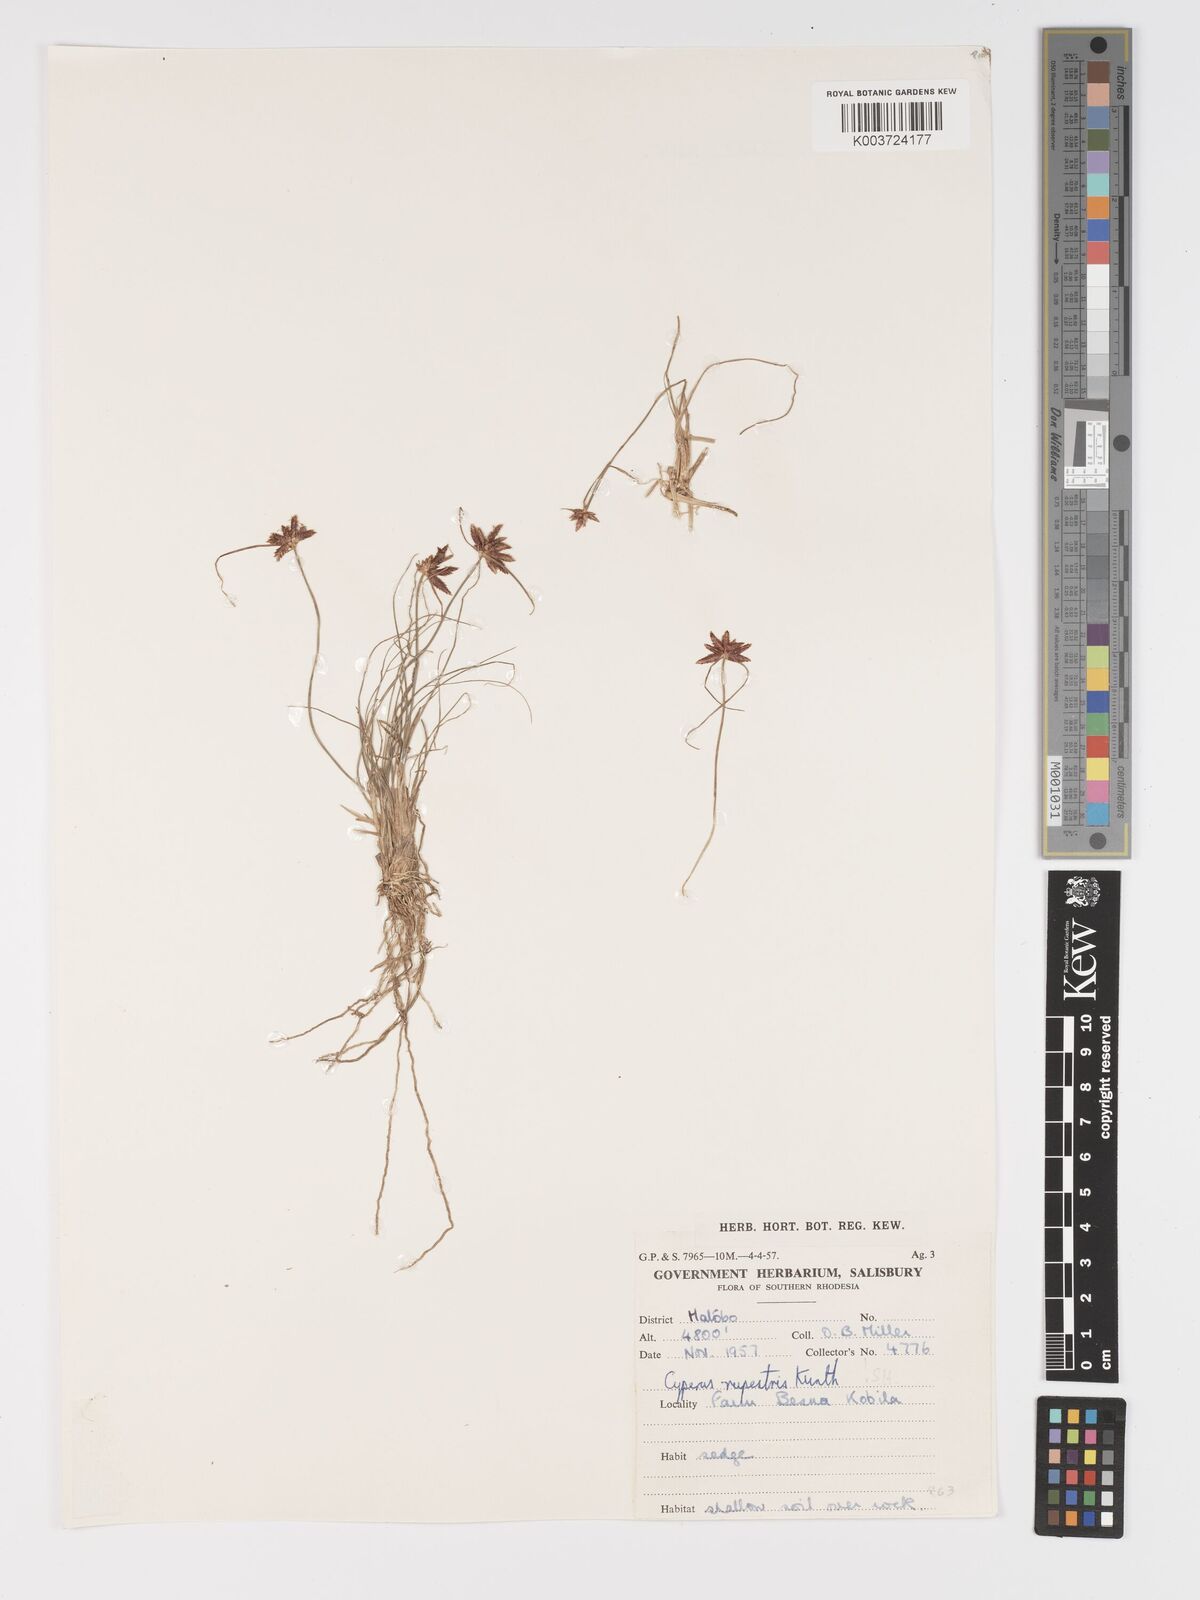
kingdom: Plantae
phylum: Tracheophyta
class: Liliopsida
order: Poales
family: Cyperaceae
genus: Cyperus
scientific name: Cyperus rupestris
